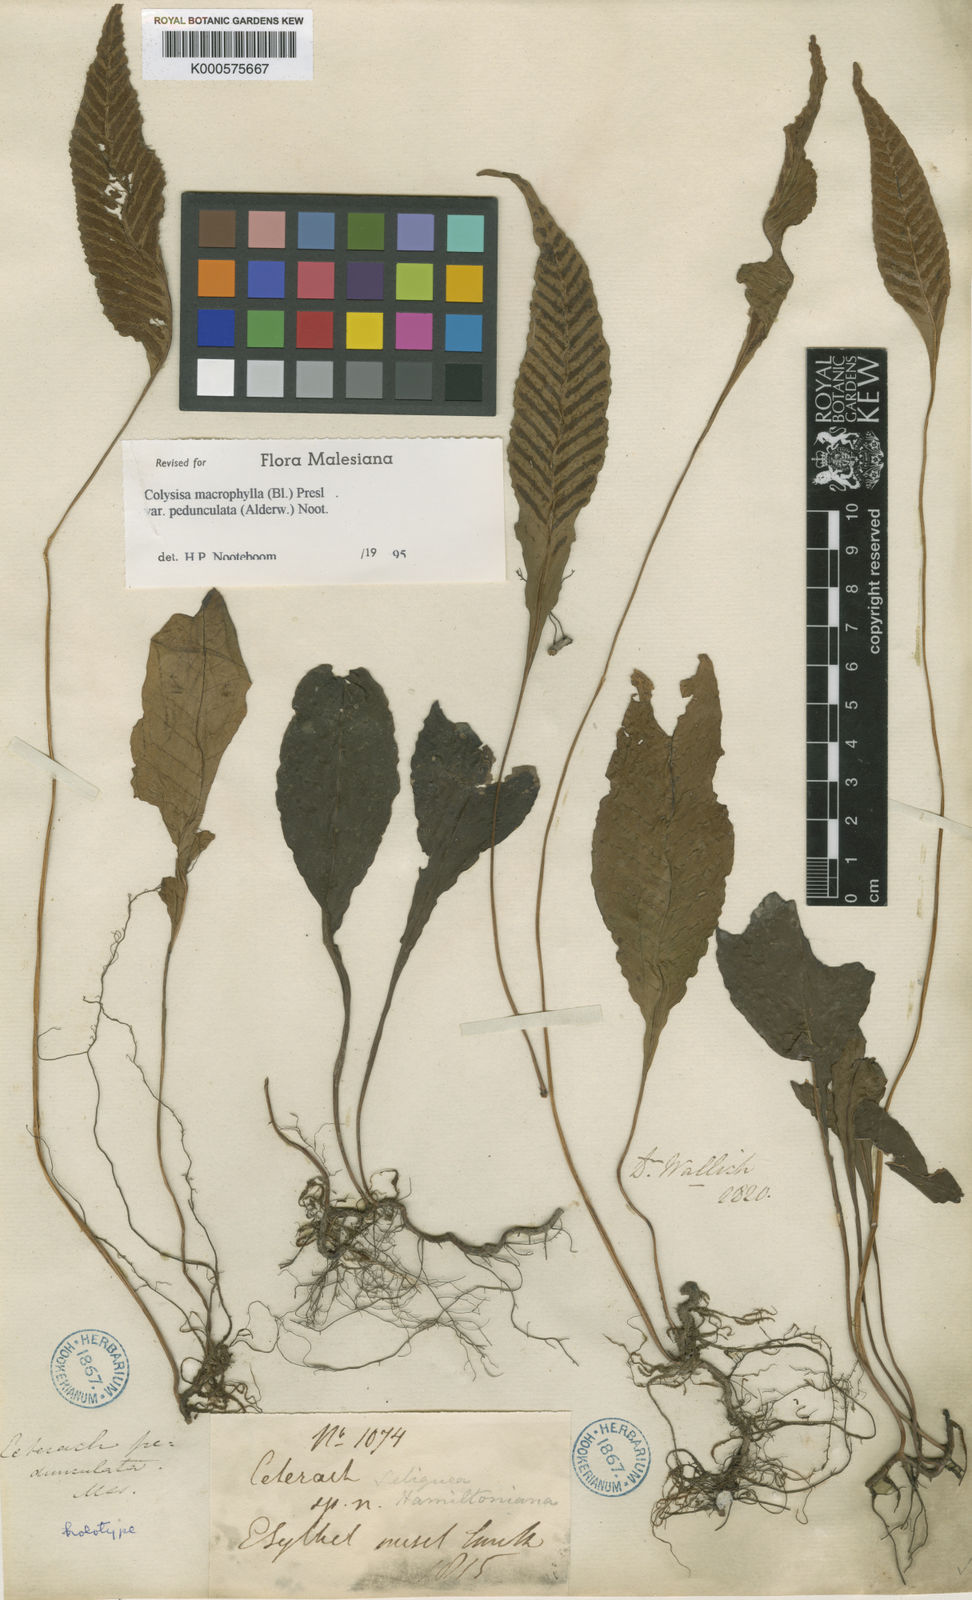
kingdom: Plantae
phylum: Tracheophyta
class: Polypodiopsida
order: Polypodiales
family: Polypodiaceae
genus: Leptochilus
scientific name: Leptochilus macrophyllus
